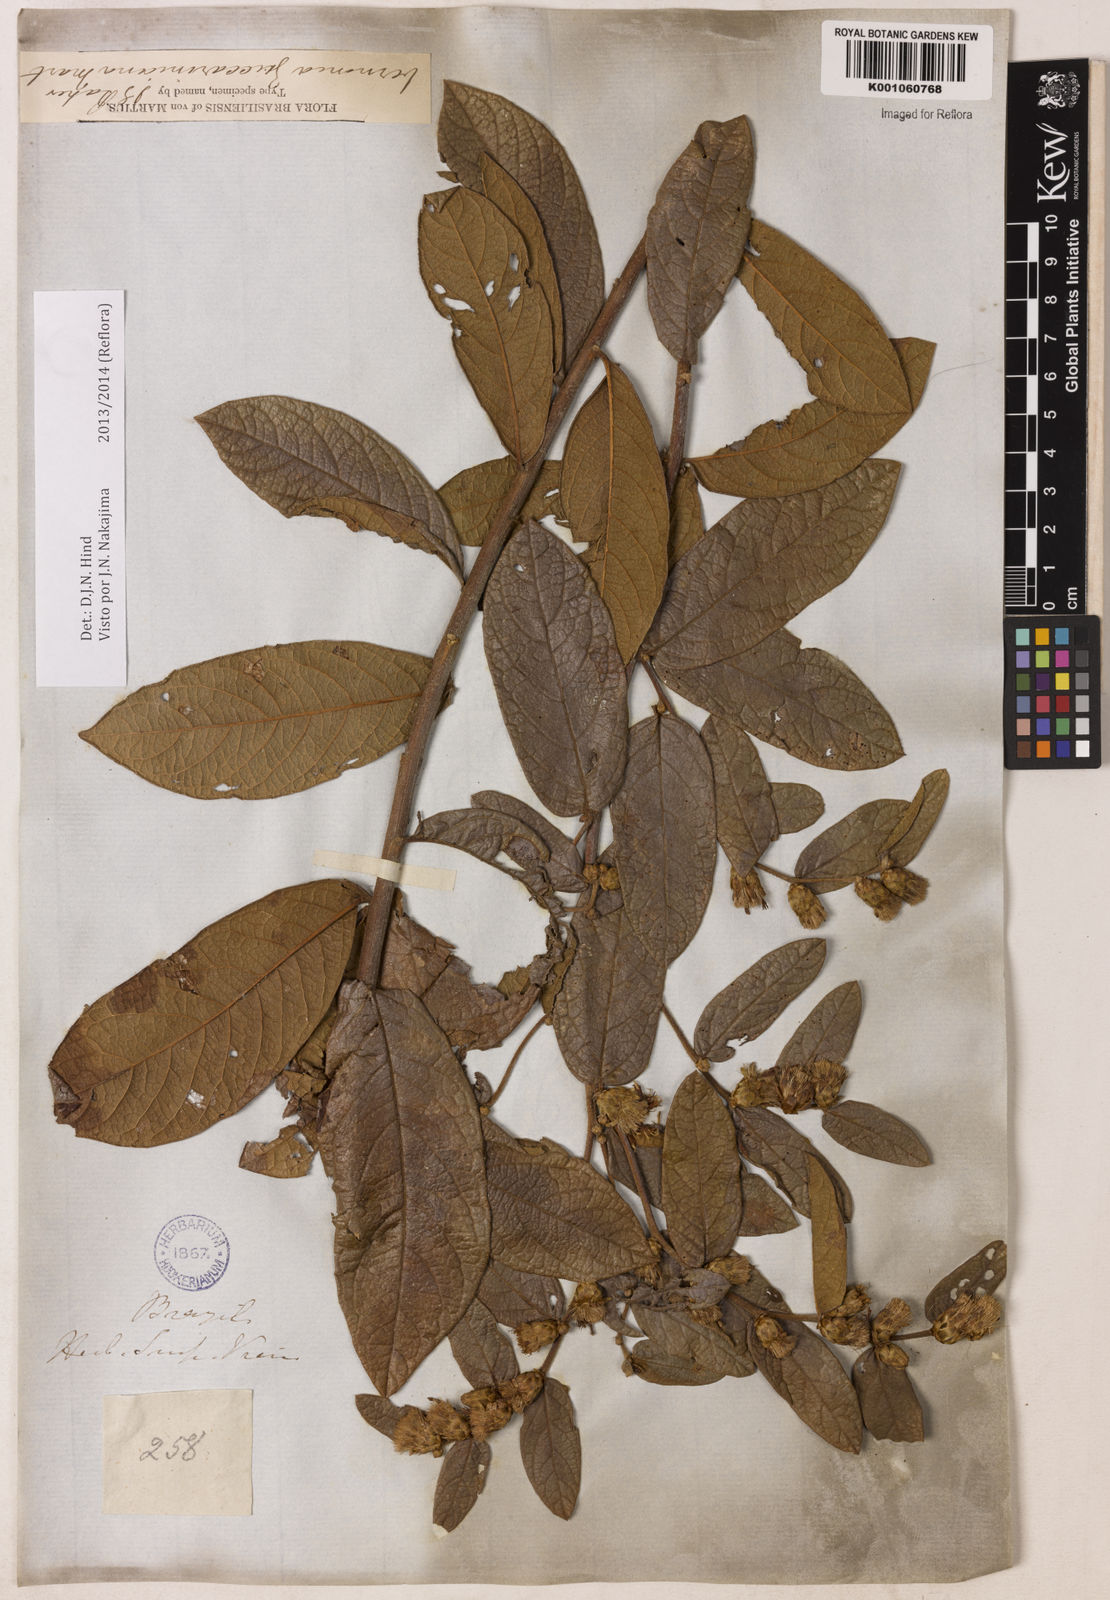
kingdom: Plantae
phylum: Tracheophyta
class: Magnoliopsida
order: Asterales
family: Asteraceae
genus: Lessingianthus
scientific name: Lessingianthus zuccarinianus
